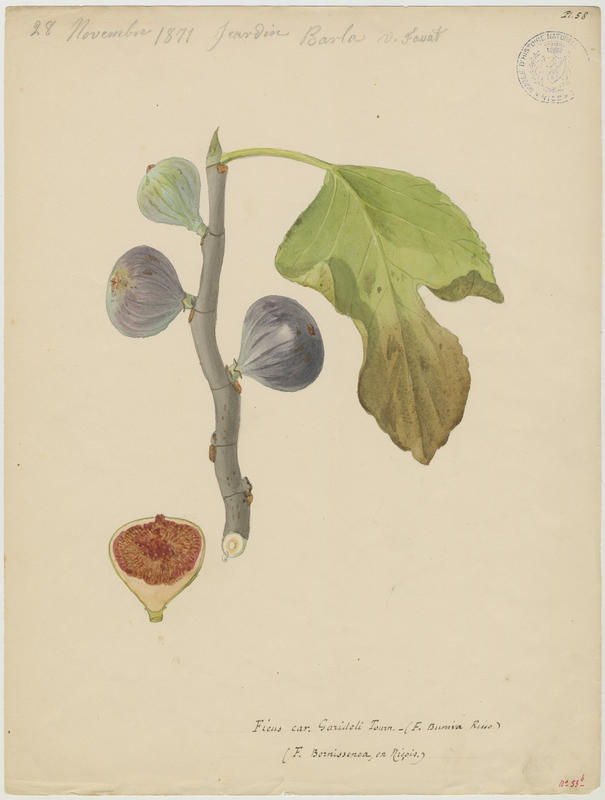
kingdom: Plantae
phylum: Tracheophyta
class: Magnoliopsida
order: Rosales
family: Moraceae
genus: Ficus
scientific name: Ficus carica
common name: Fig
